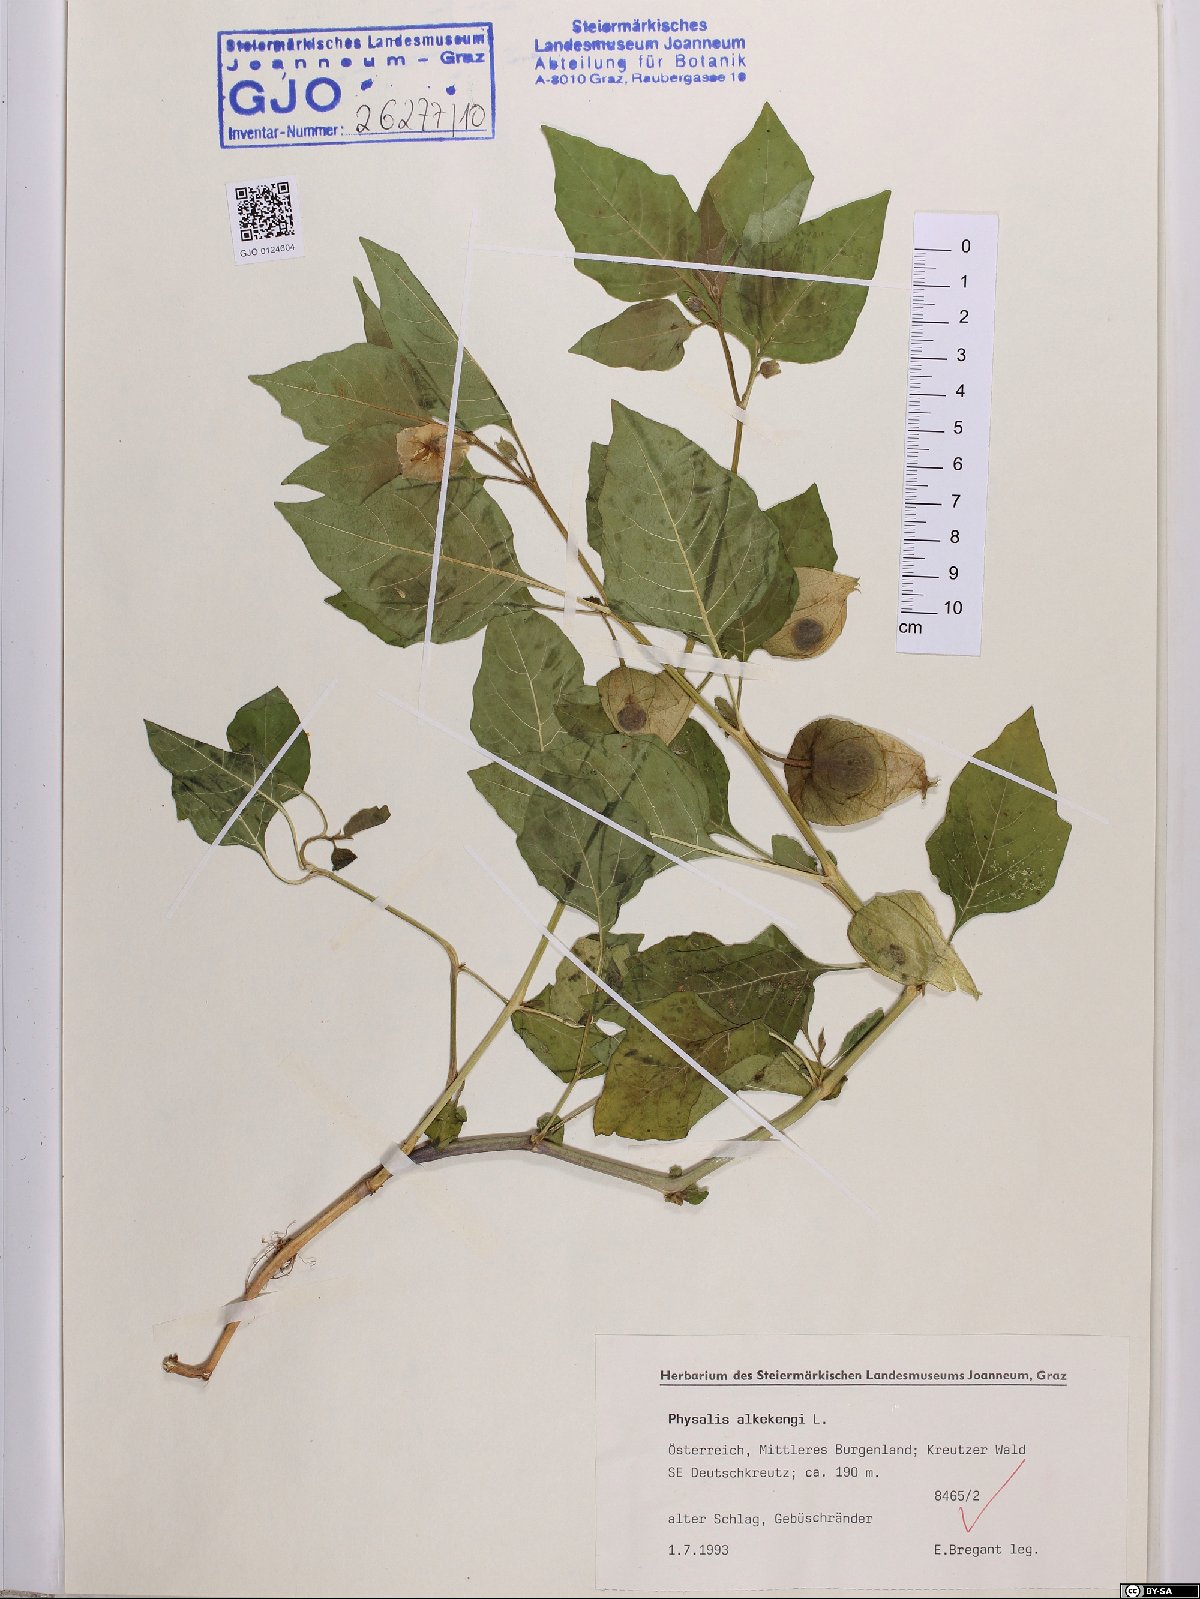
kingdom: Plantae
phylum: Tracheophyta
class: Magnoliopsida
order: Solanales
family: Solanaceae
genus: Alkekengi
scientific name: Alkekengi officinarum
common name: Japanese-lantern
